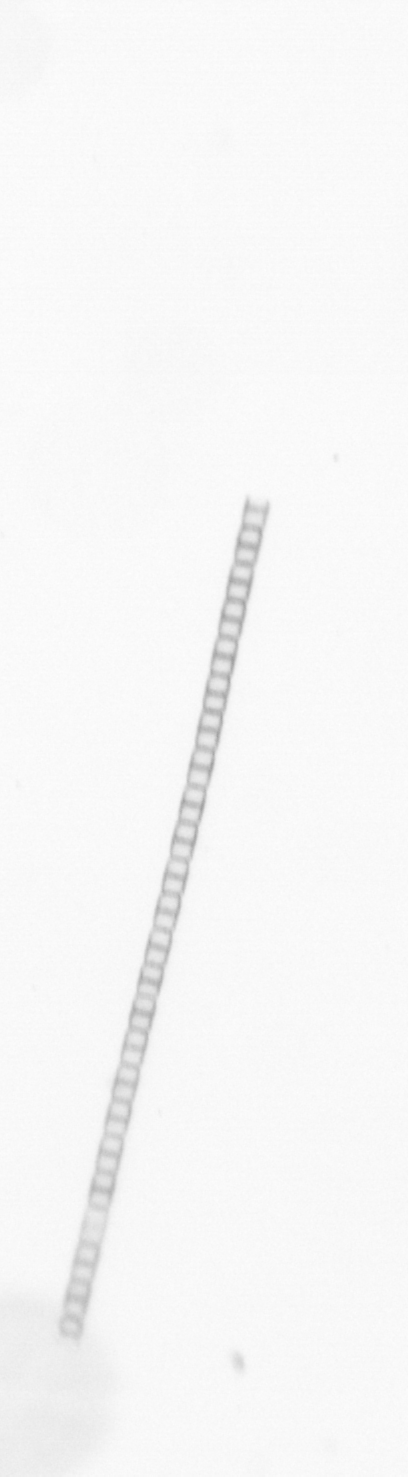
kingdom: Chromista
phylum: Ochrophyta
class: Bacillariophyceae
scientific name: Bacillariophyceae
